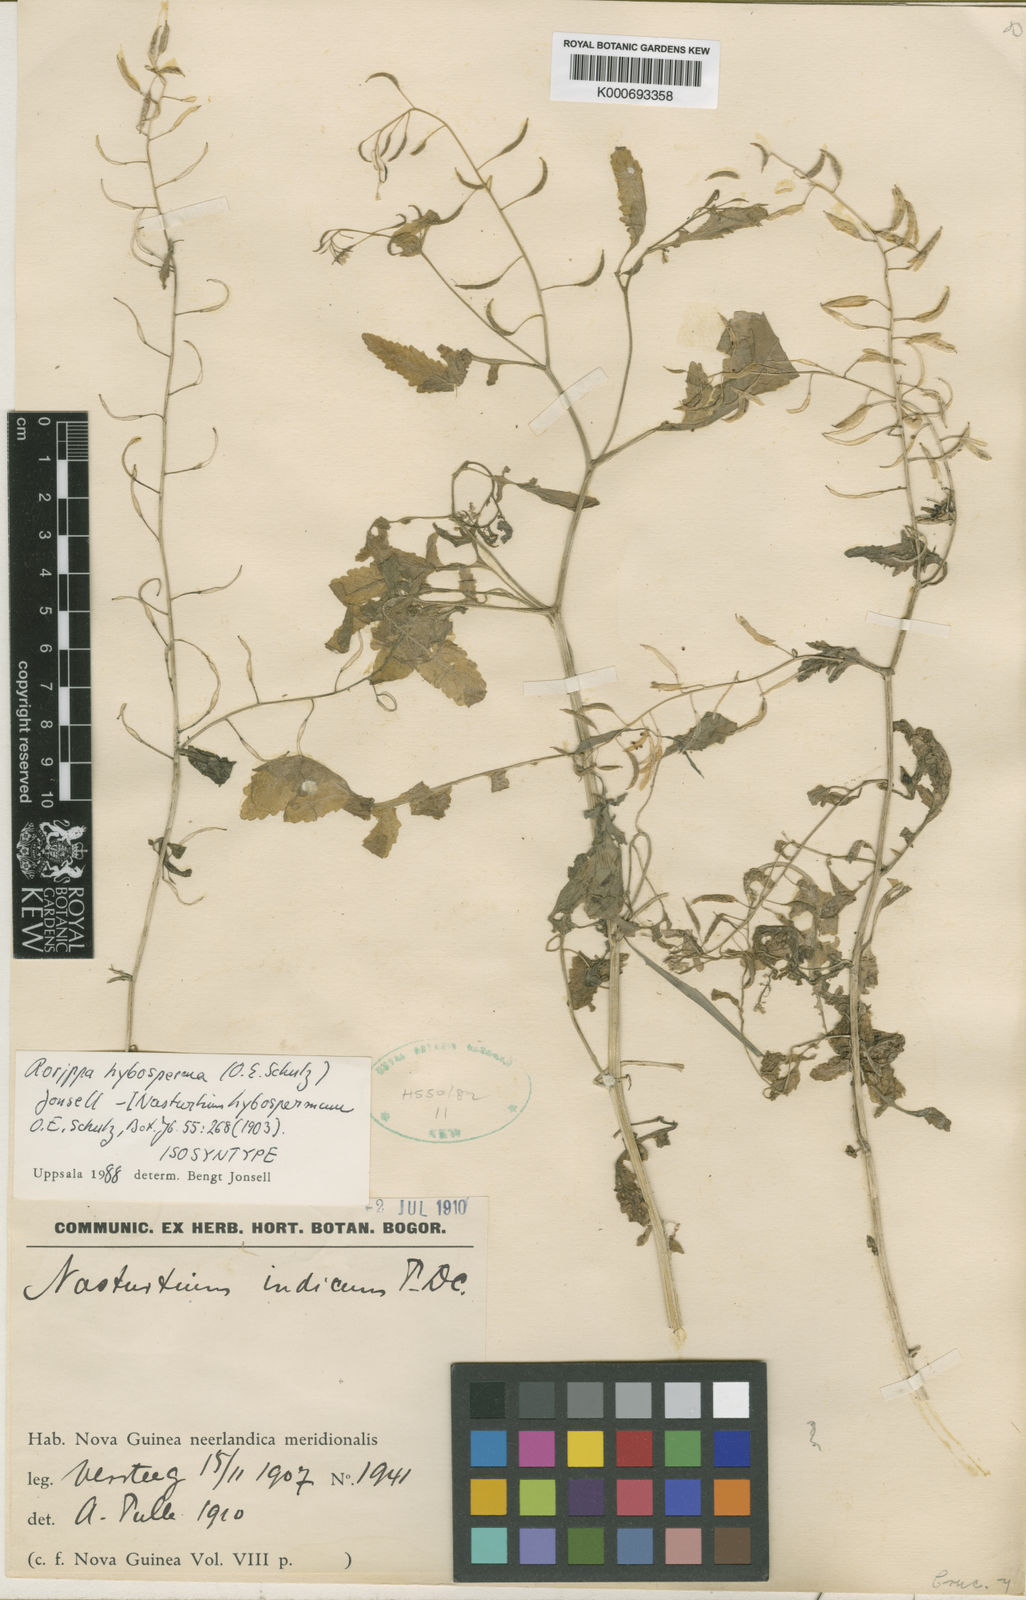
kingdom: Plantae
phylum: Tracheophyta
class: Magnoliopsida
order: Brassicales
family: Brassicaceae
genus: Rorippa
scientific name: Rorippa hybosperma
